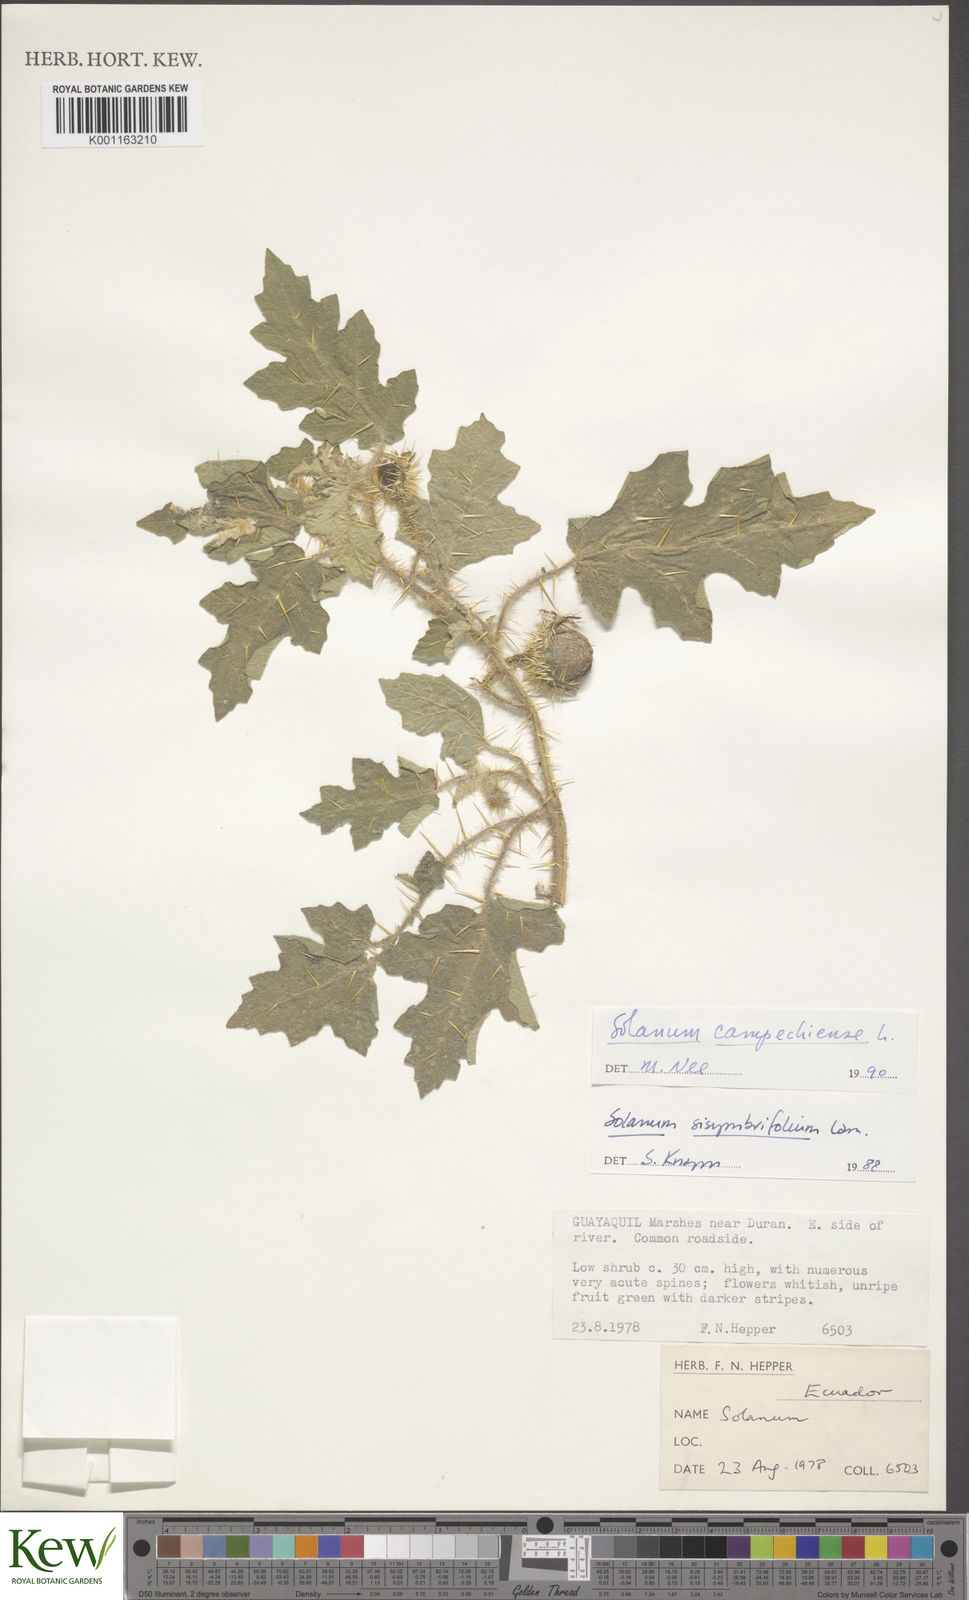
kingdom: Plantae
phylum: Tracheophyta
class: Magnoliopsida
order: Solanales
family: Solanaceae
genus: Solanum
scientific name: Solanum campechiense
